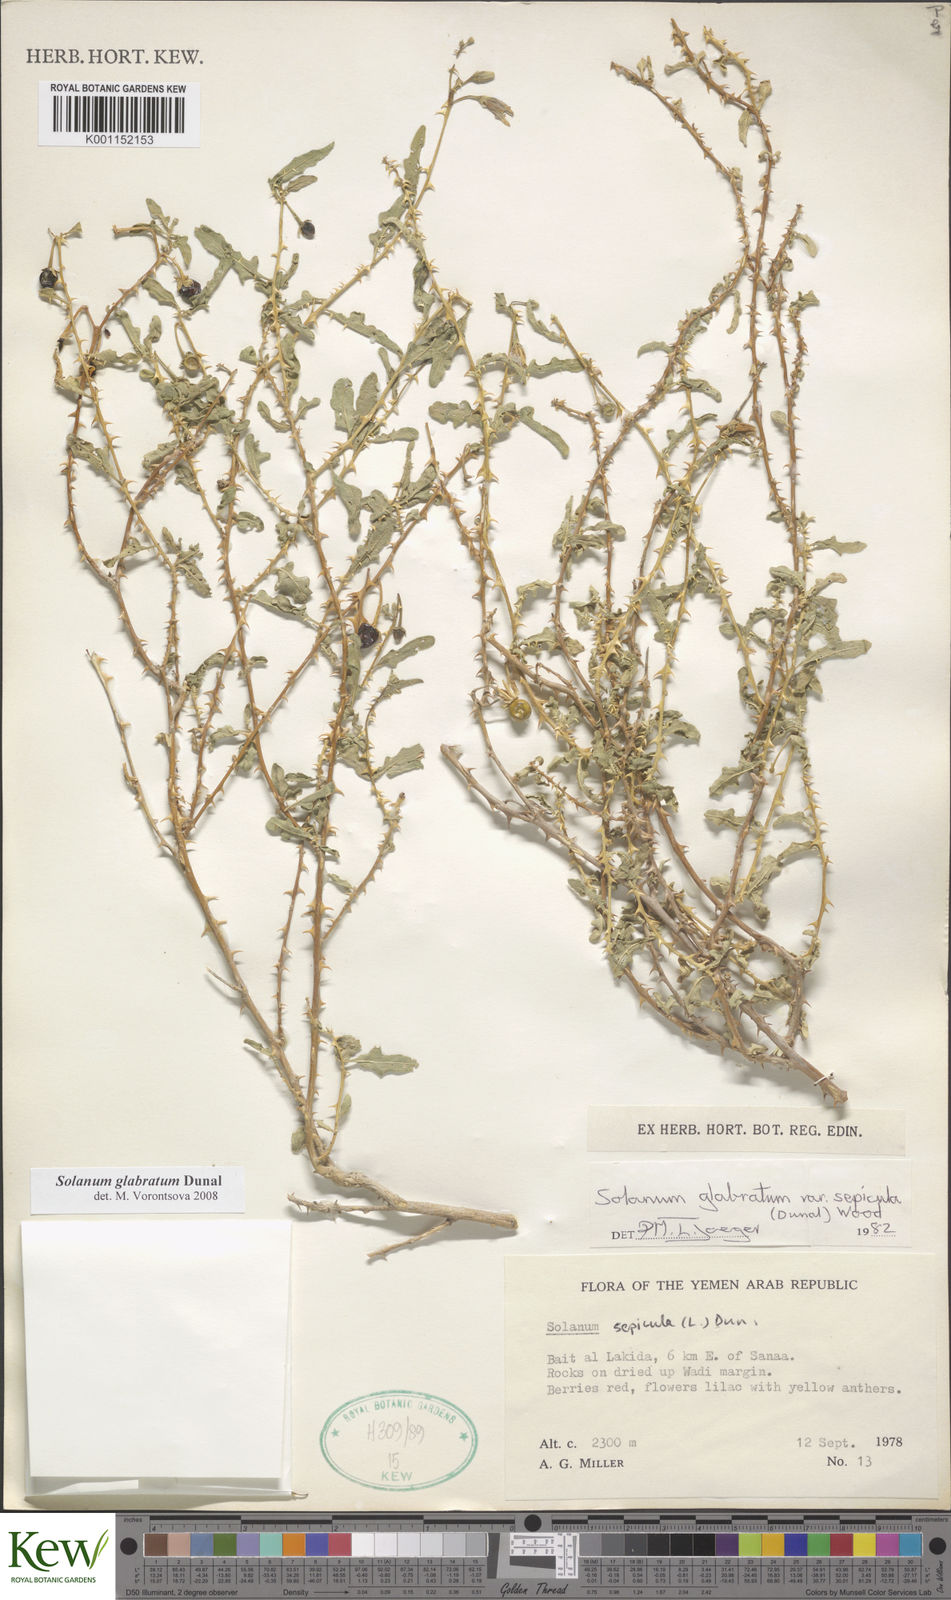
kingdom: Plantae
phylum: Tracheophyta
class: Magnoliopsida
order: Solanales
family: Solanaceae
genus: Solanum
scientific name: Solanum glabratum
